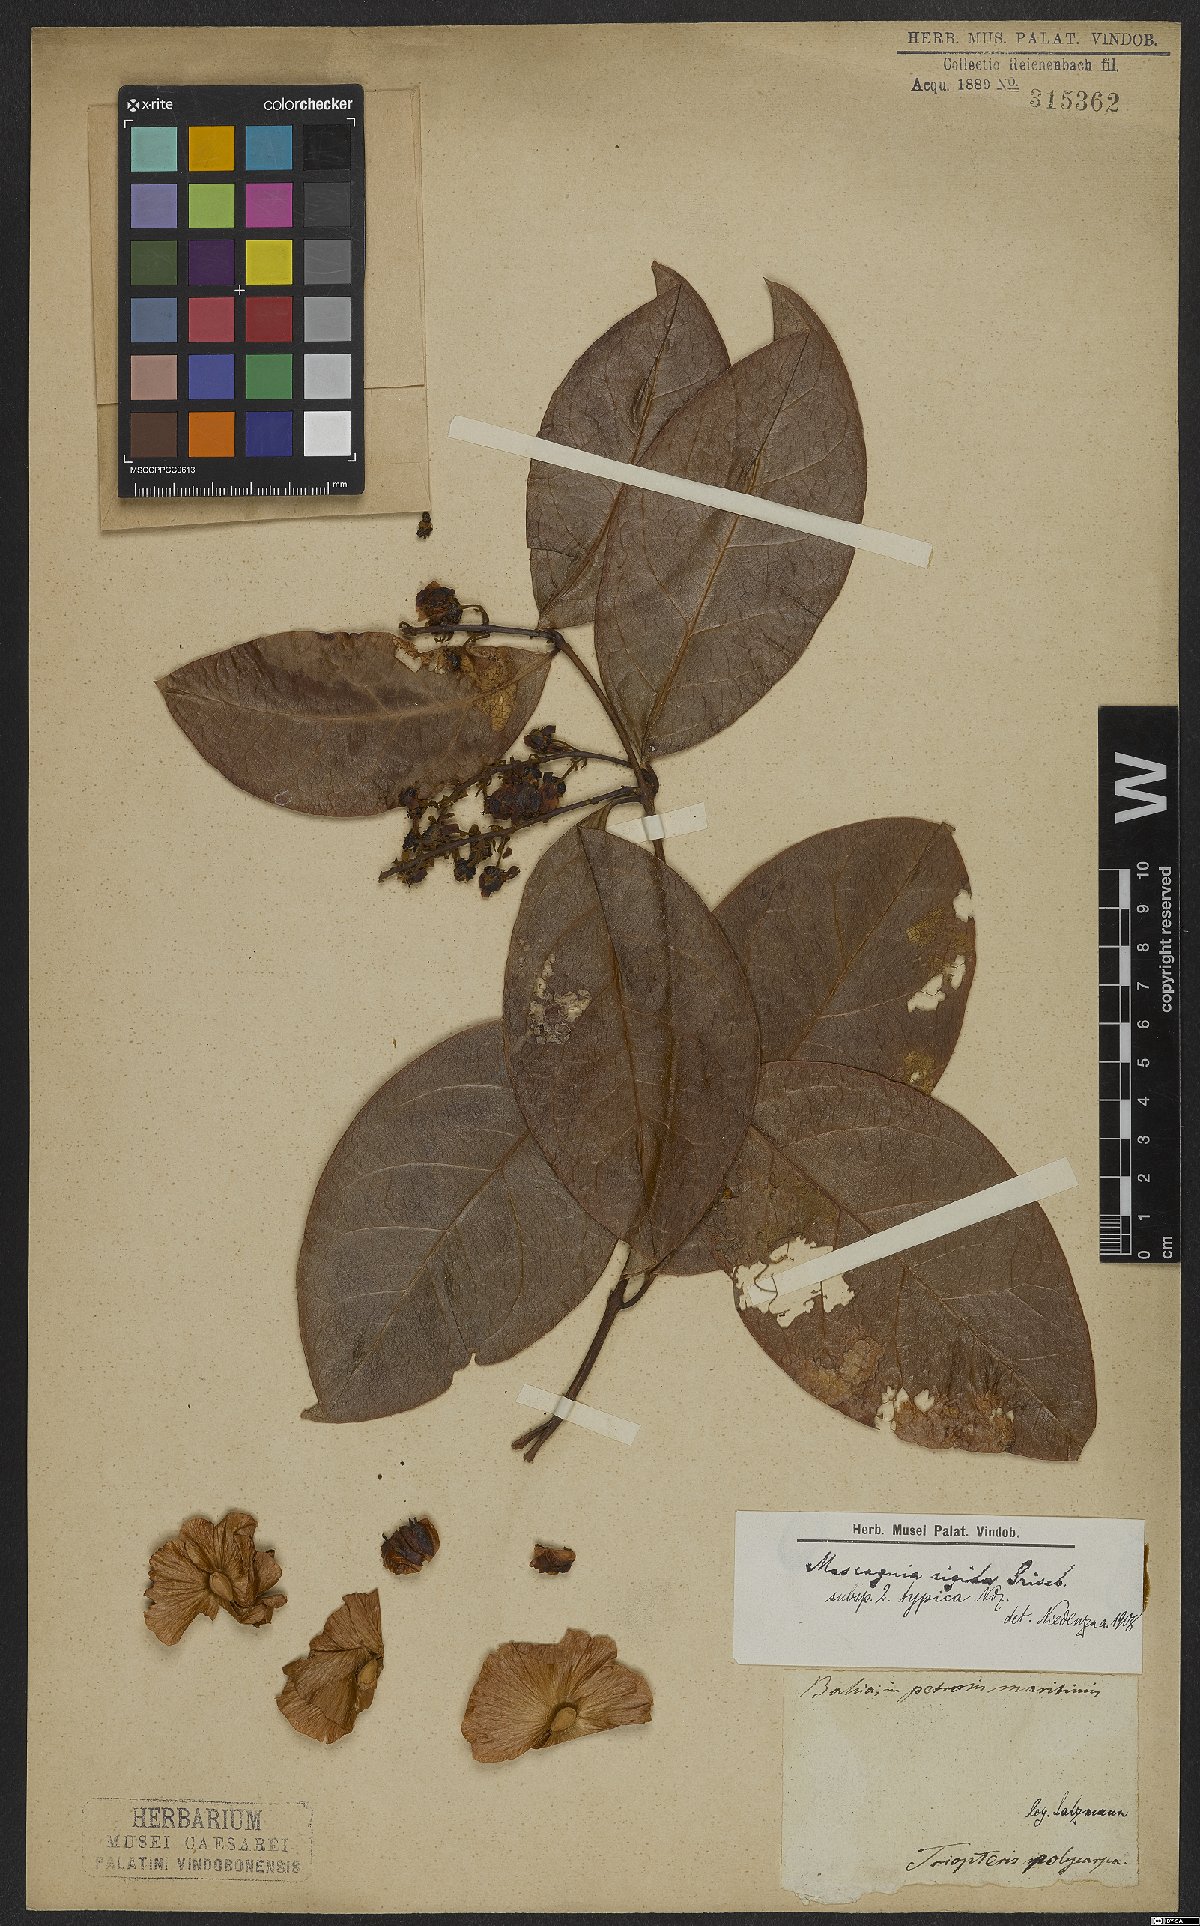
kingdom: Plantae
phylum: Tracheophyta
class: Magnoliopsida
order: Malpighiales
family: Malpighiaceae
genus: Amorimia
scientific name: Amorimia rigida
